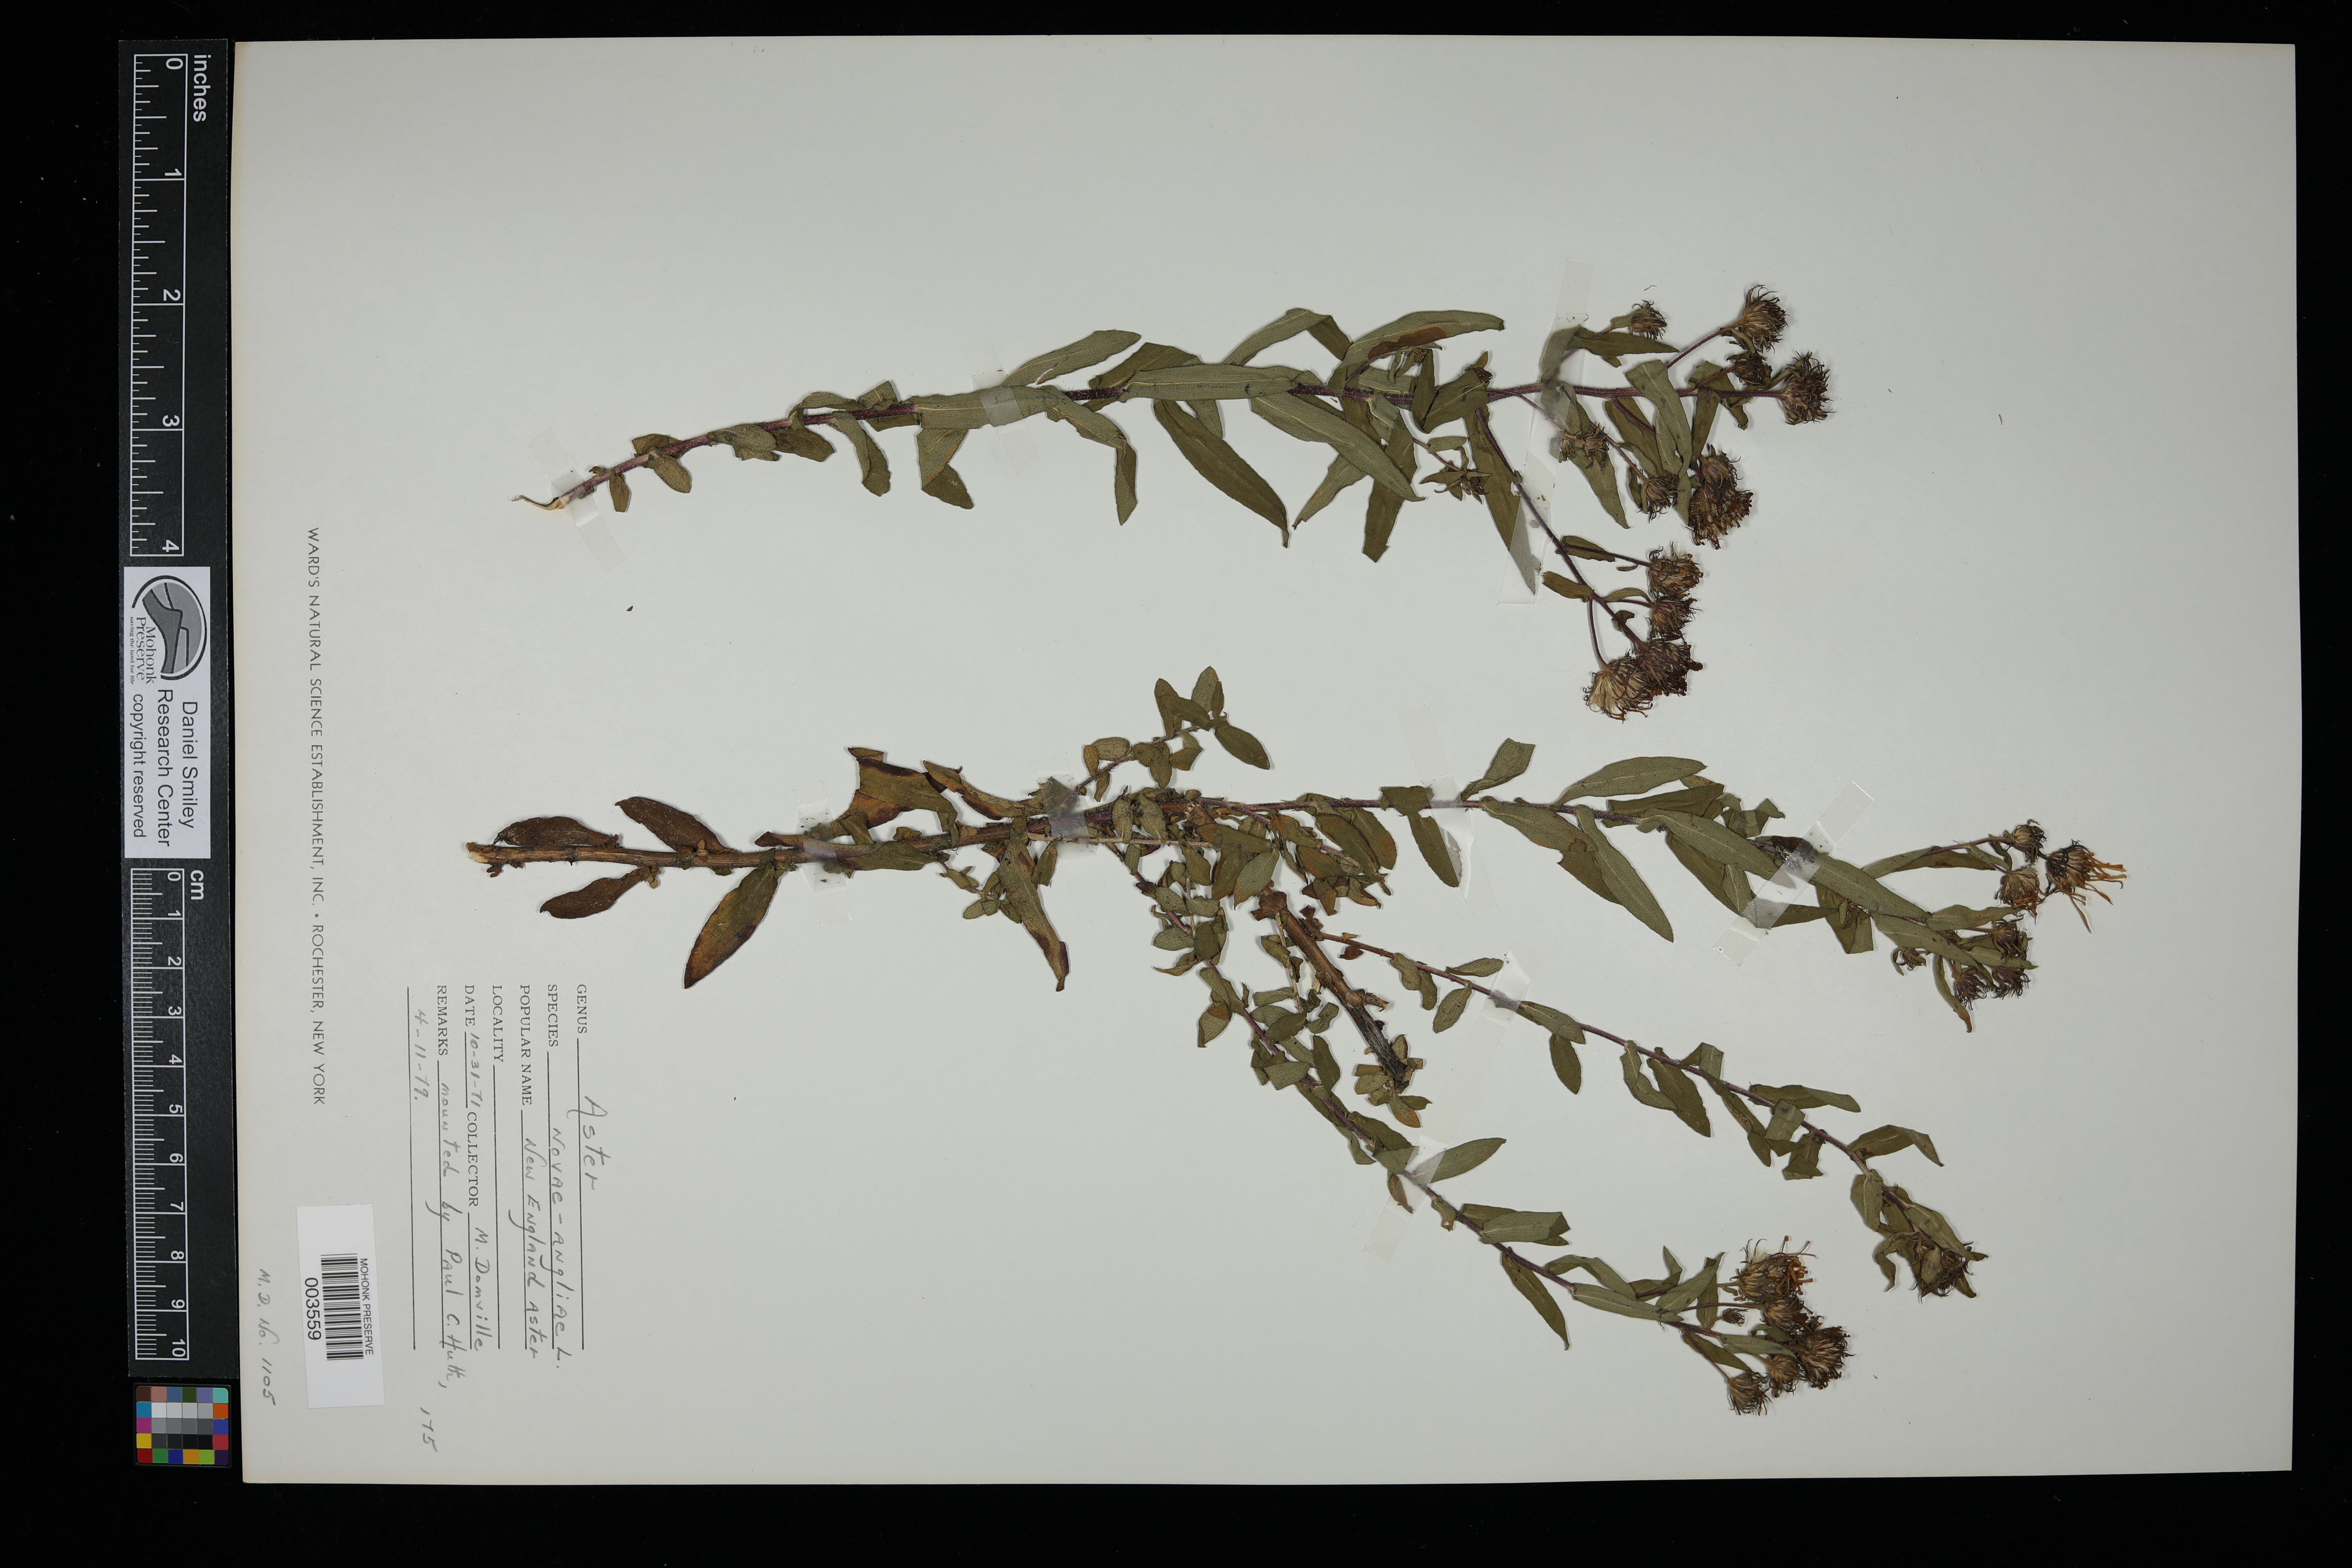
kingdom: Plantae
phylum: Tracheophyta
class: Magnoliopsida
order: Asterales
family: Asteraceae
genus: Symphyotrichum
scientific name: Symphyotrichum novae-angliae
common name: Michaelmas daisy
